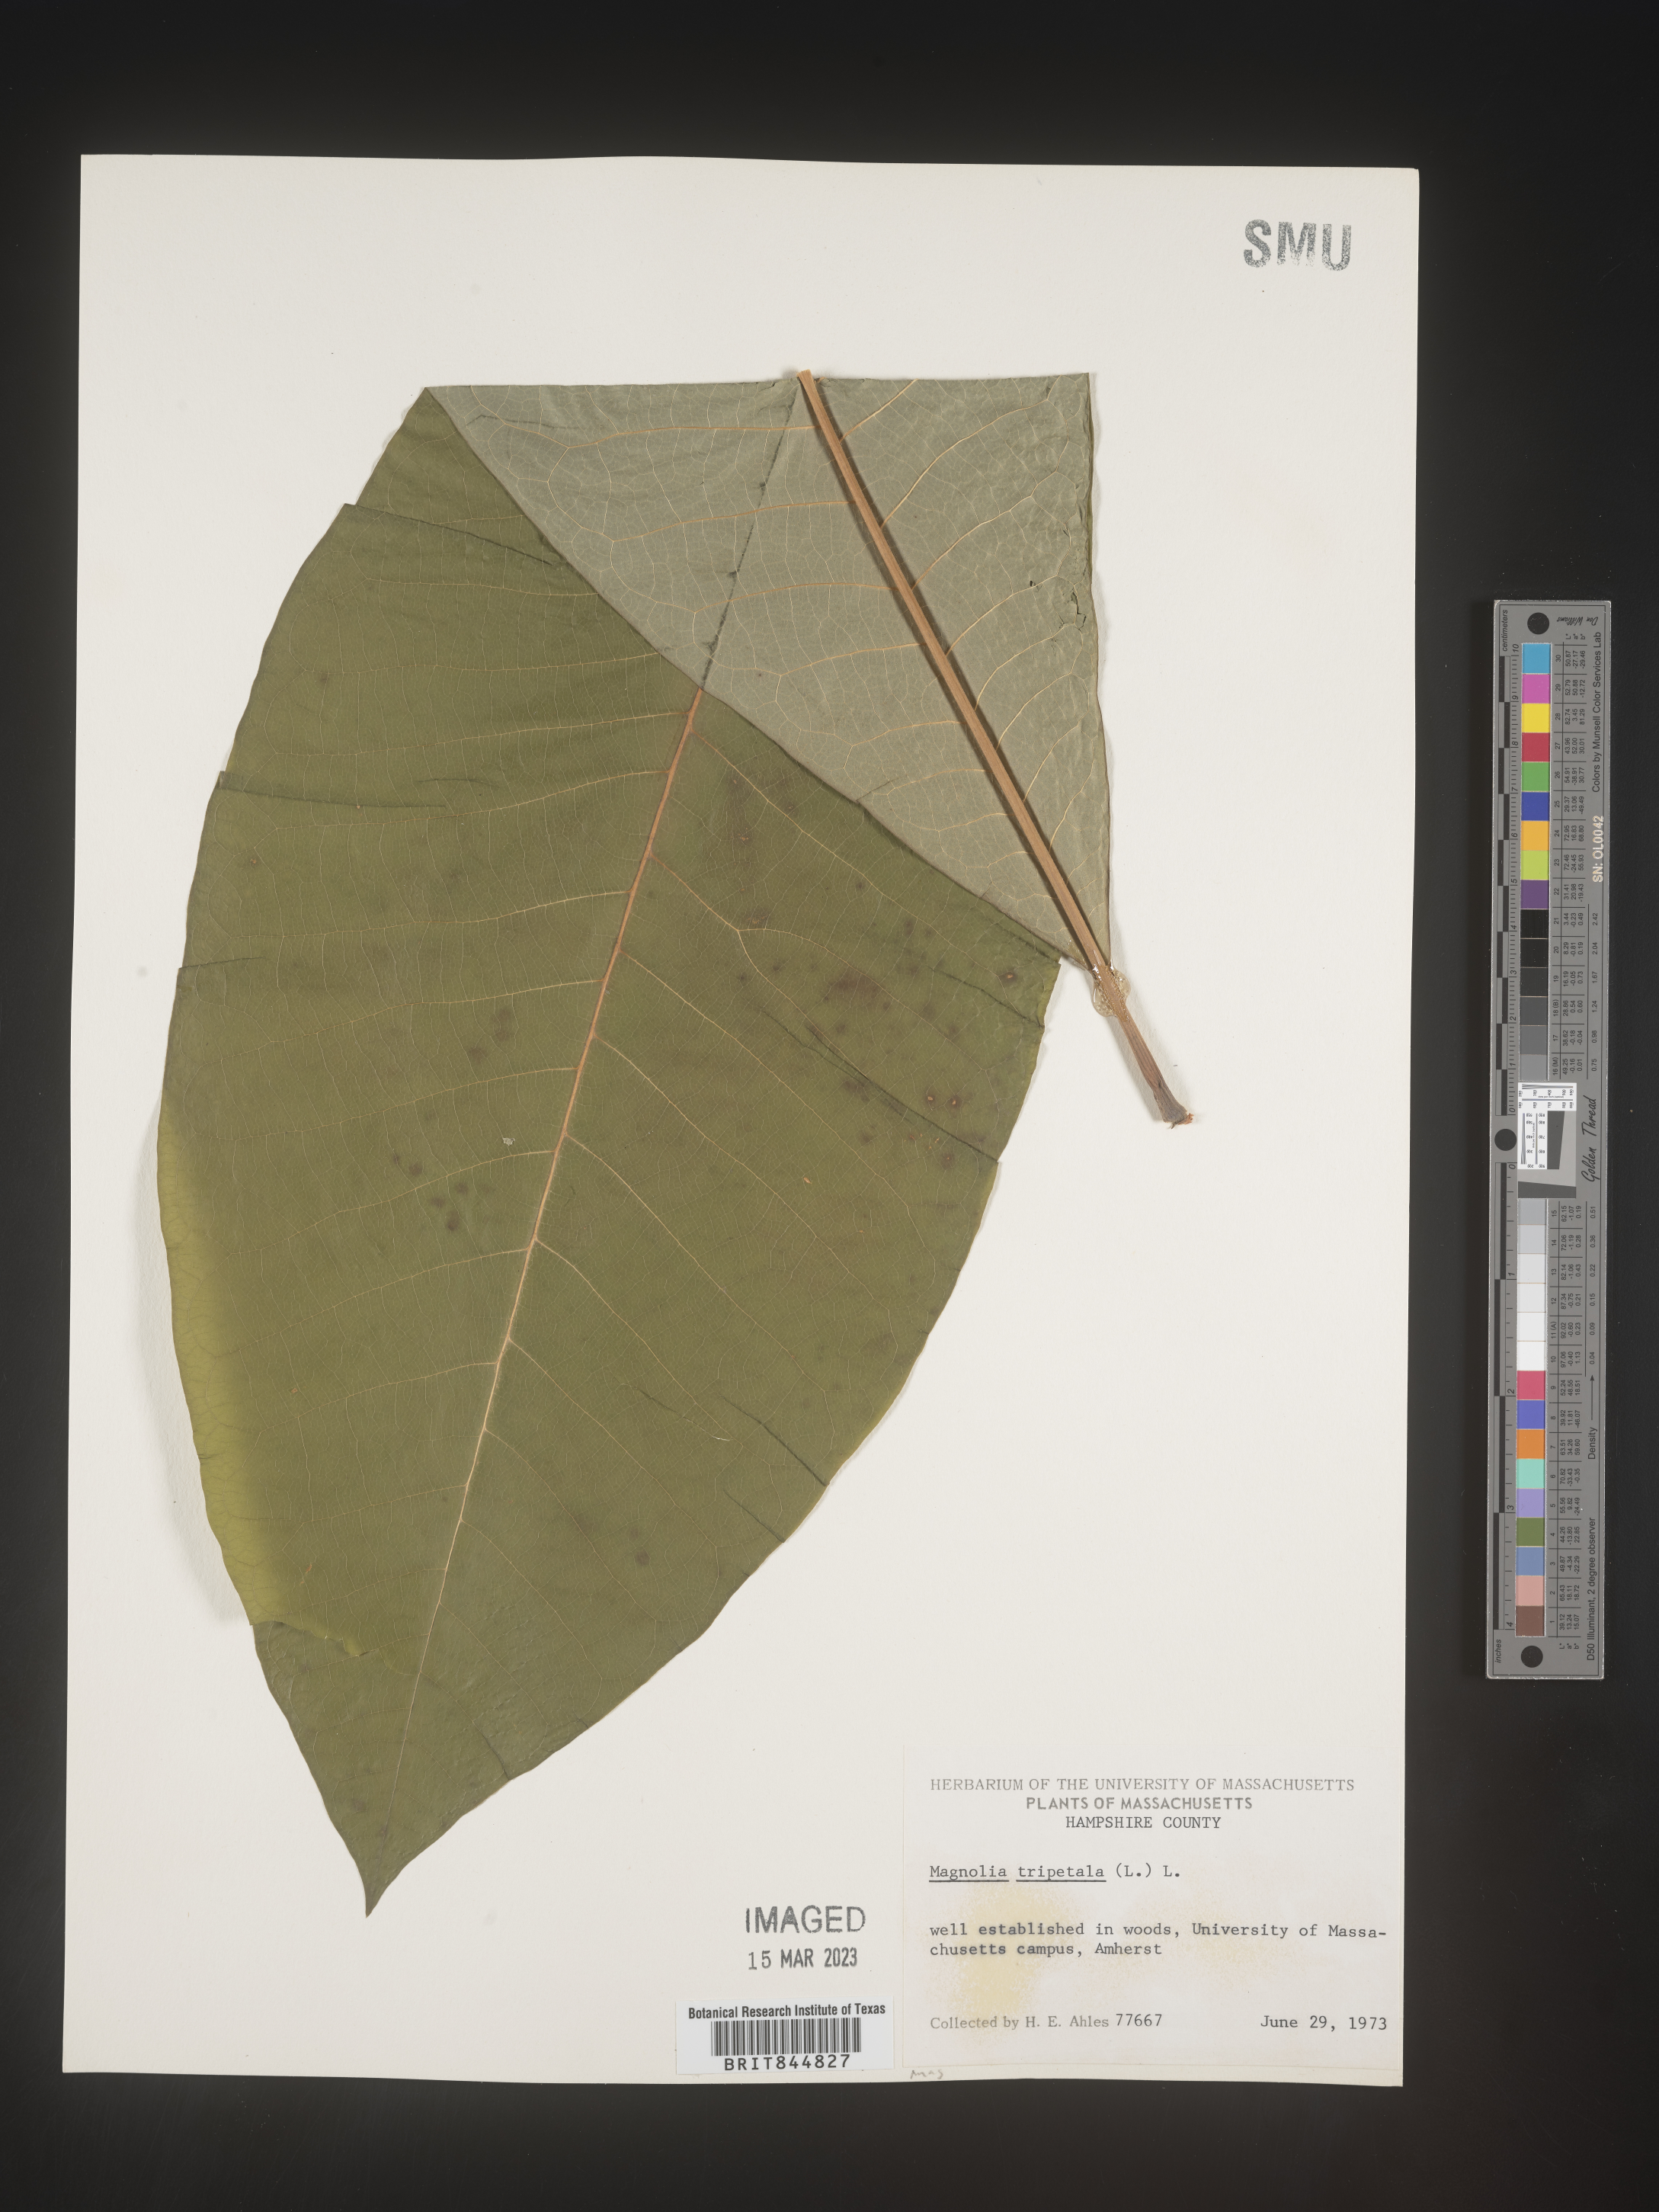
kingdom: Plantae
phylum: Tracheophyta
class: Magnoliopsida
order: Magnoliales
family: Magnoliaceae
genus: Magnolia
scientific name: Magnolia tripetala
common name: Umbrella magnolia
